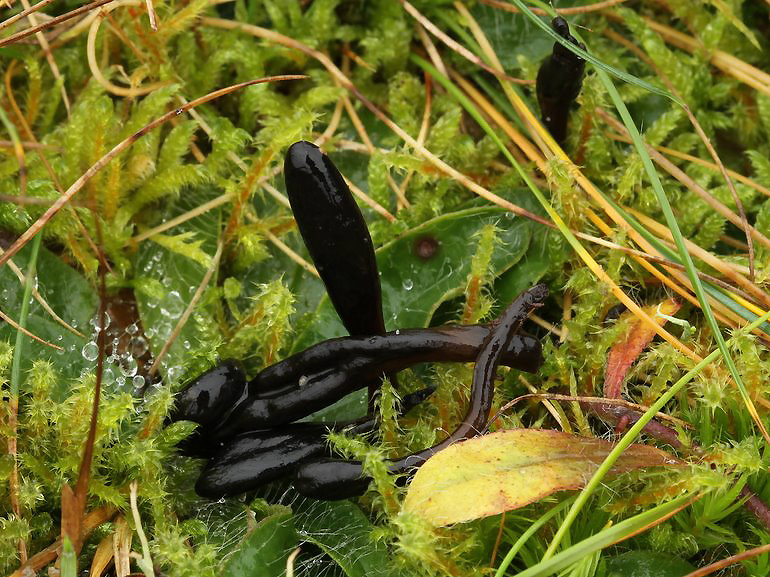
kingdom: Fungi
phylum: Ascomycota
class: Geoglossomycetes
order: Geoglossales
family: Geoglossaceae
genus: Glutinoglossum
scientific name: Glutinoglossum glutinosum
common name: slimet jordtunge
